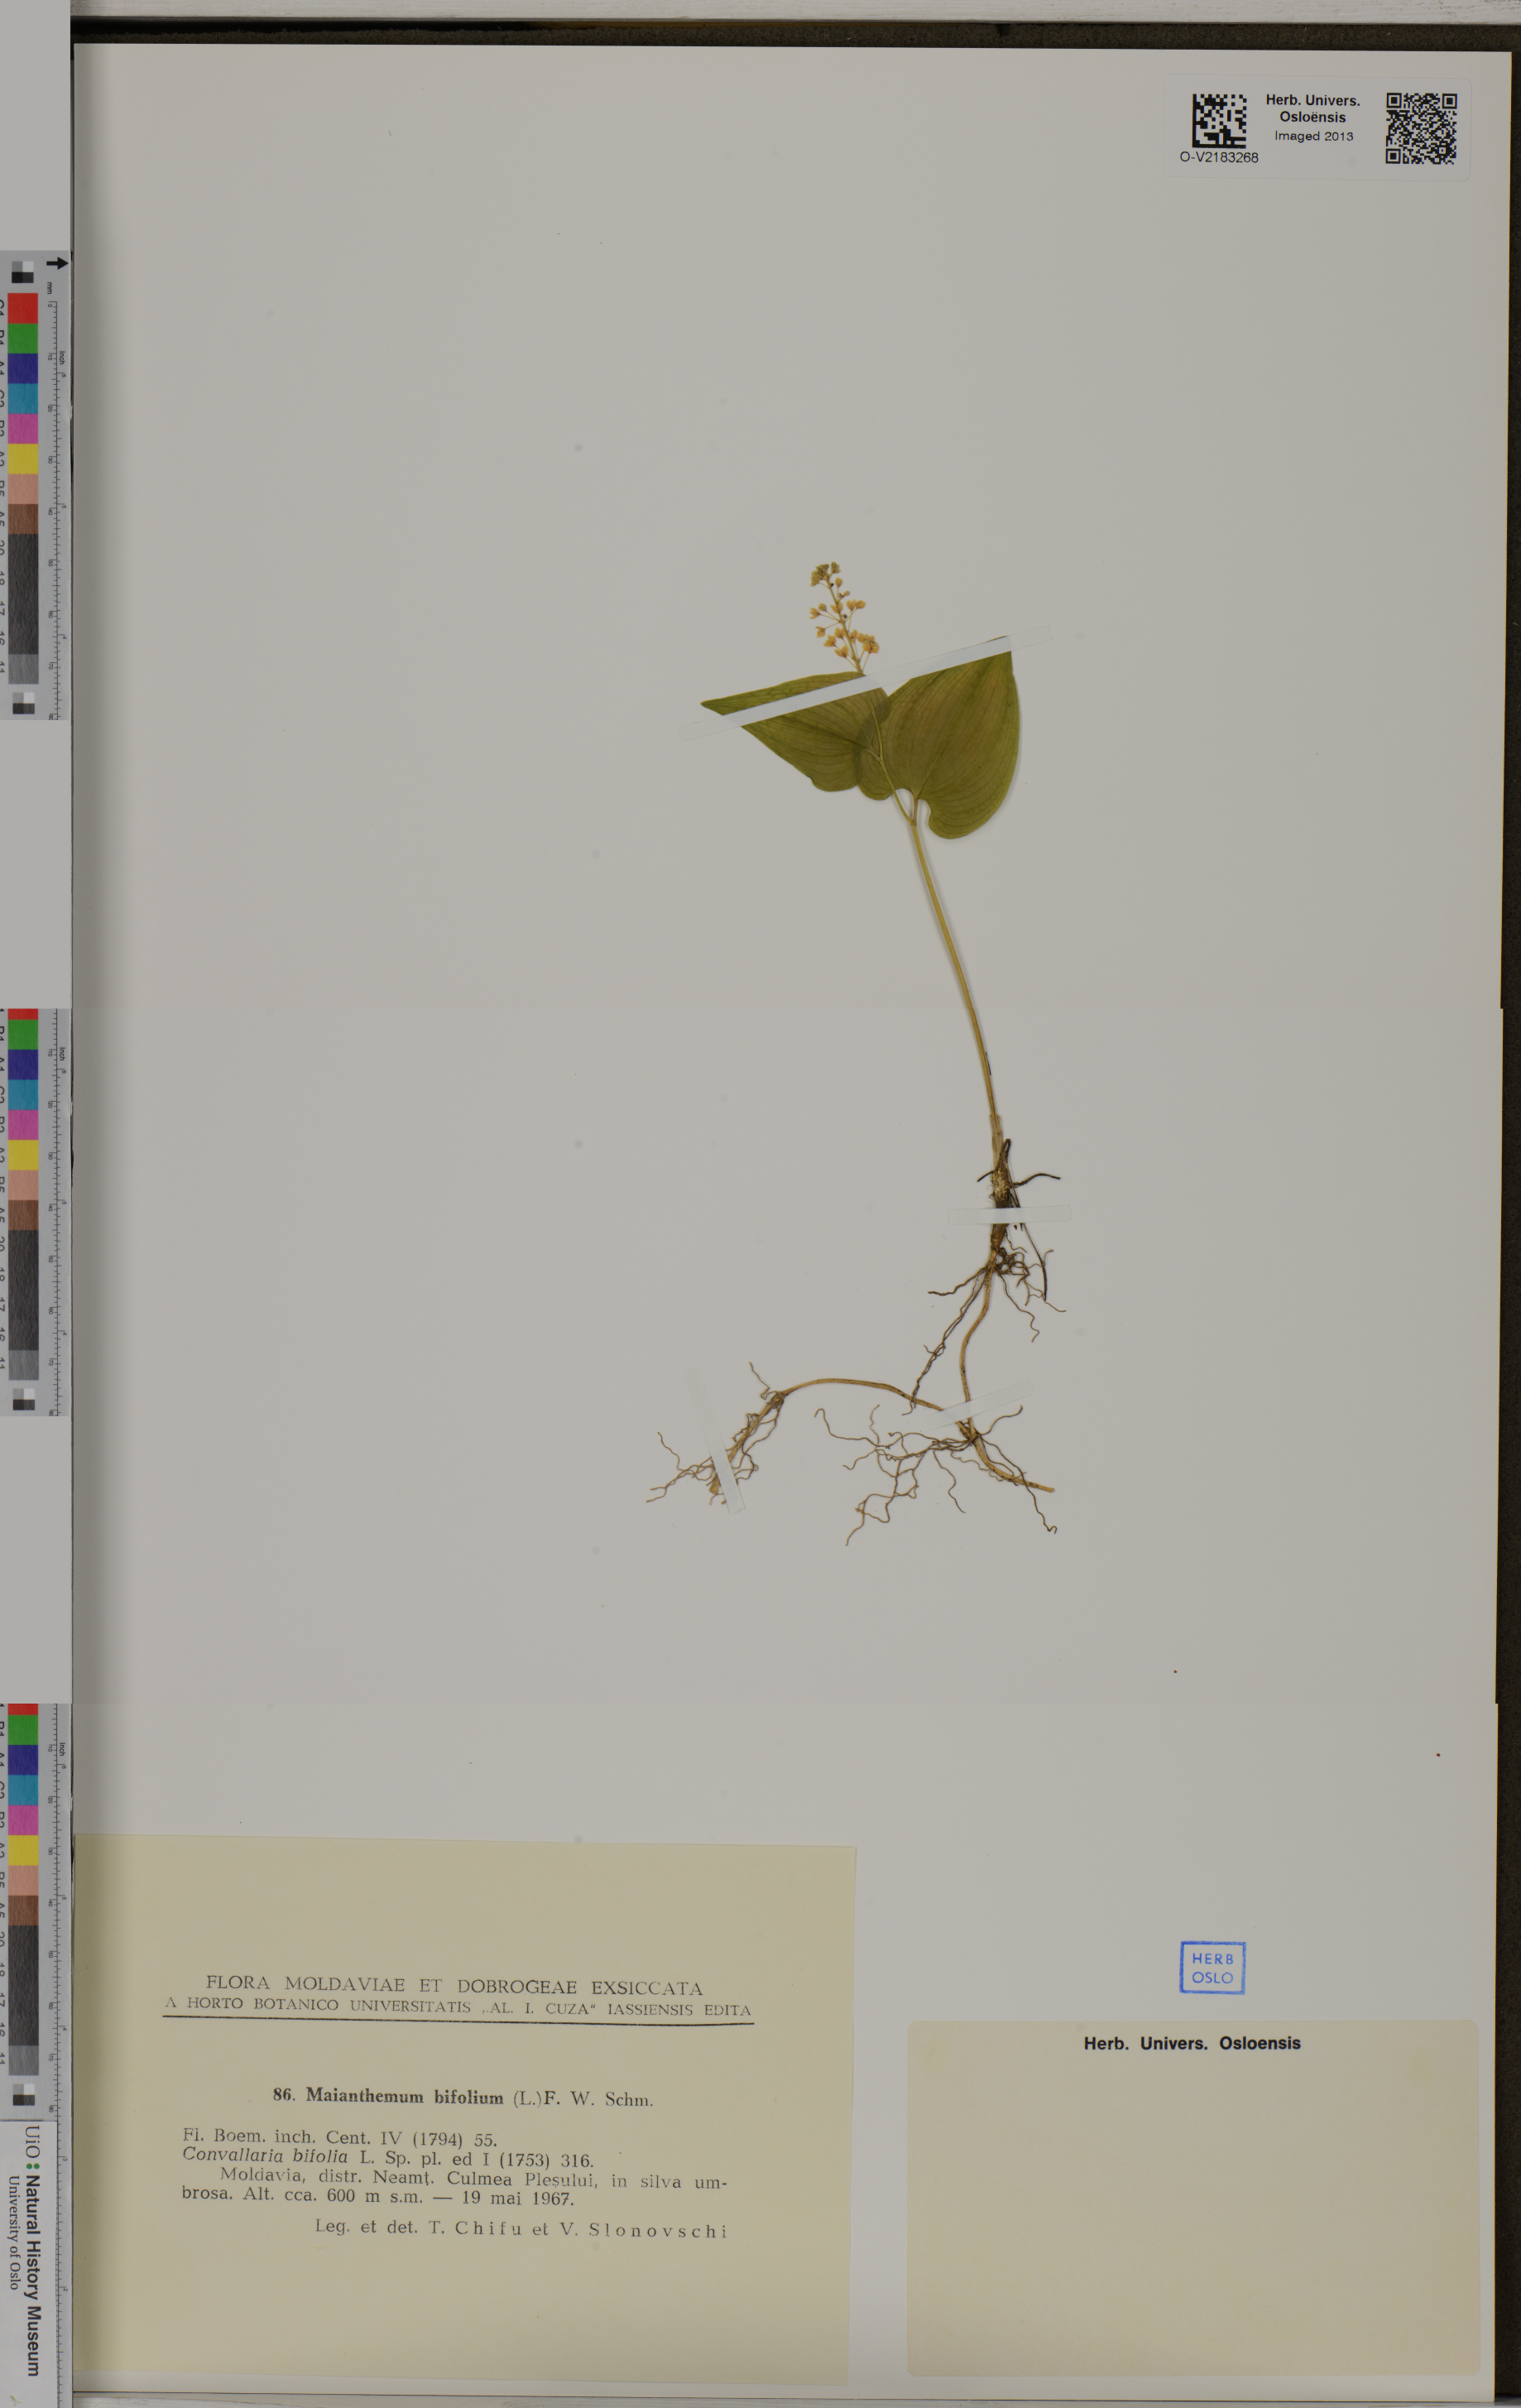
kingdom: Plantae
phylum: Tracheophyta
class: Liliopsida
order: Asparagales
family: Asparagaceae
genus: Maianthemum
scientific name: Maianthemum bifolium
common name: May lily
